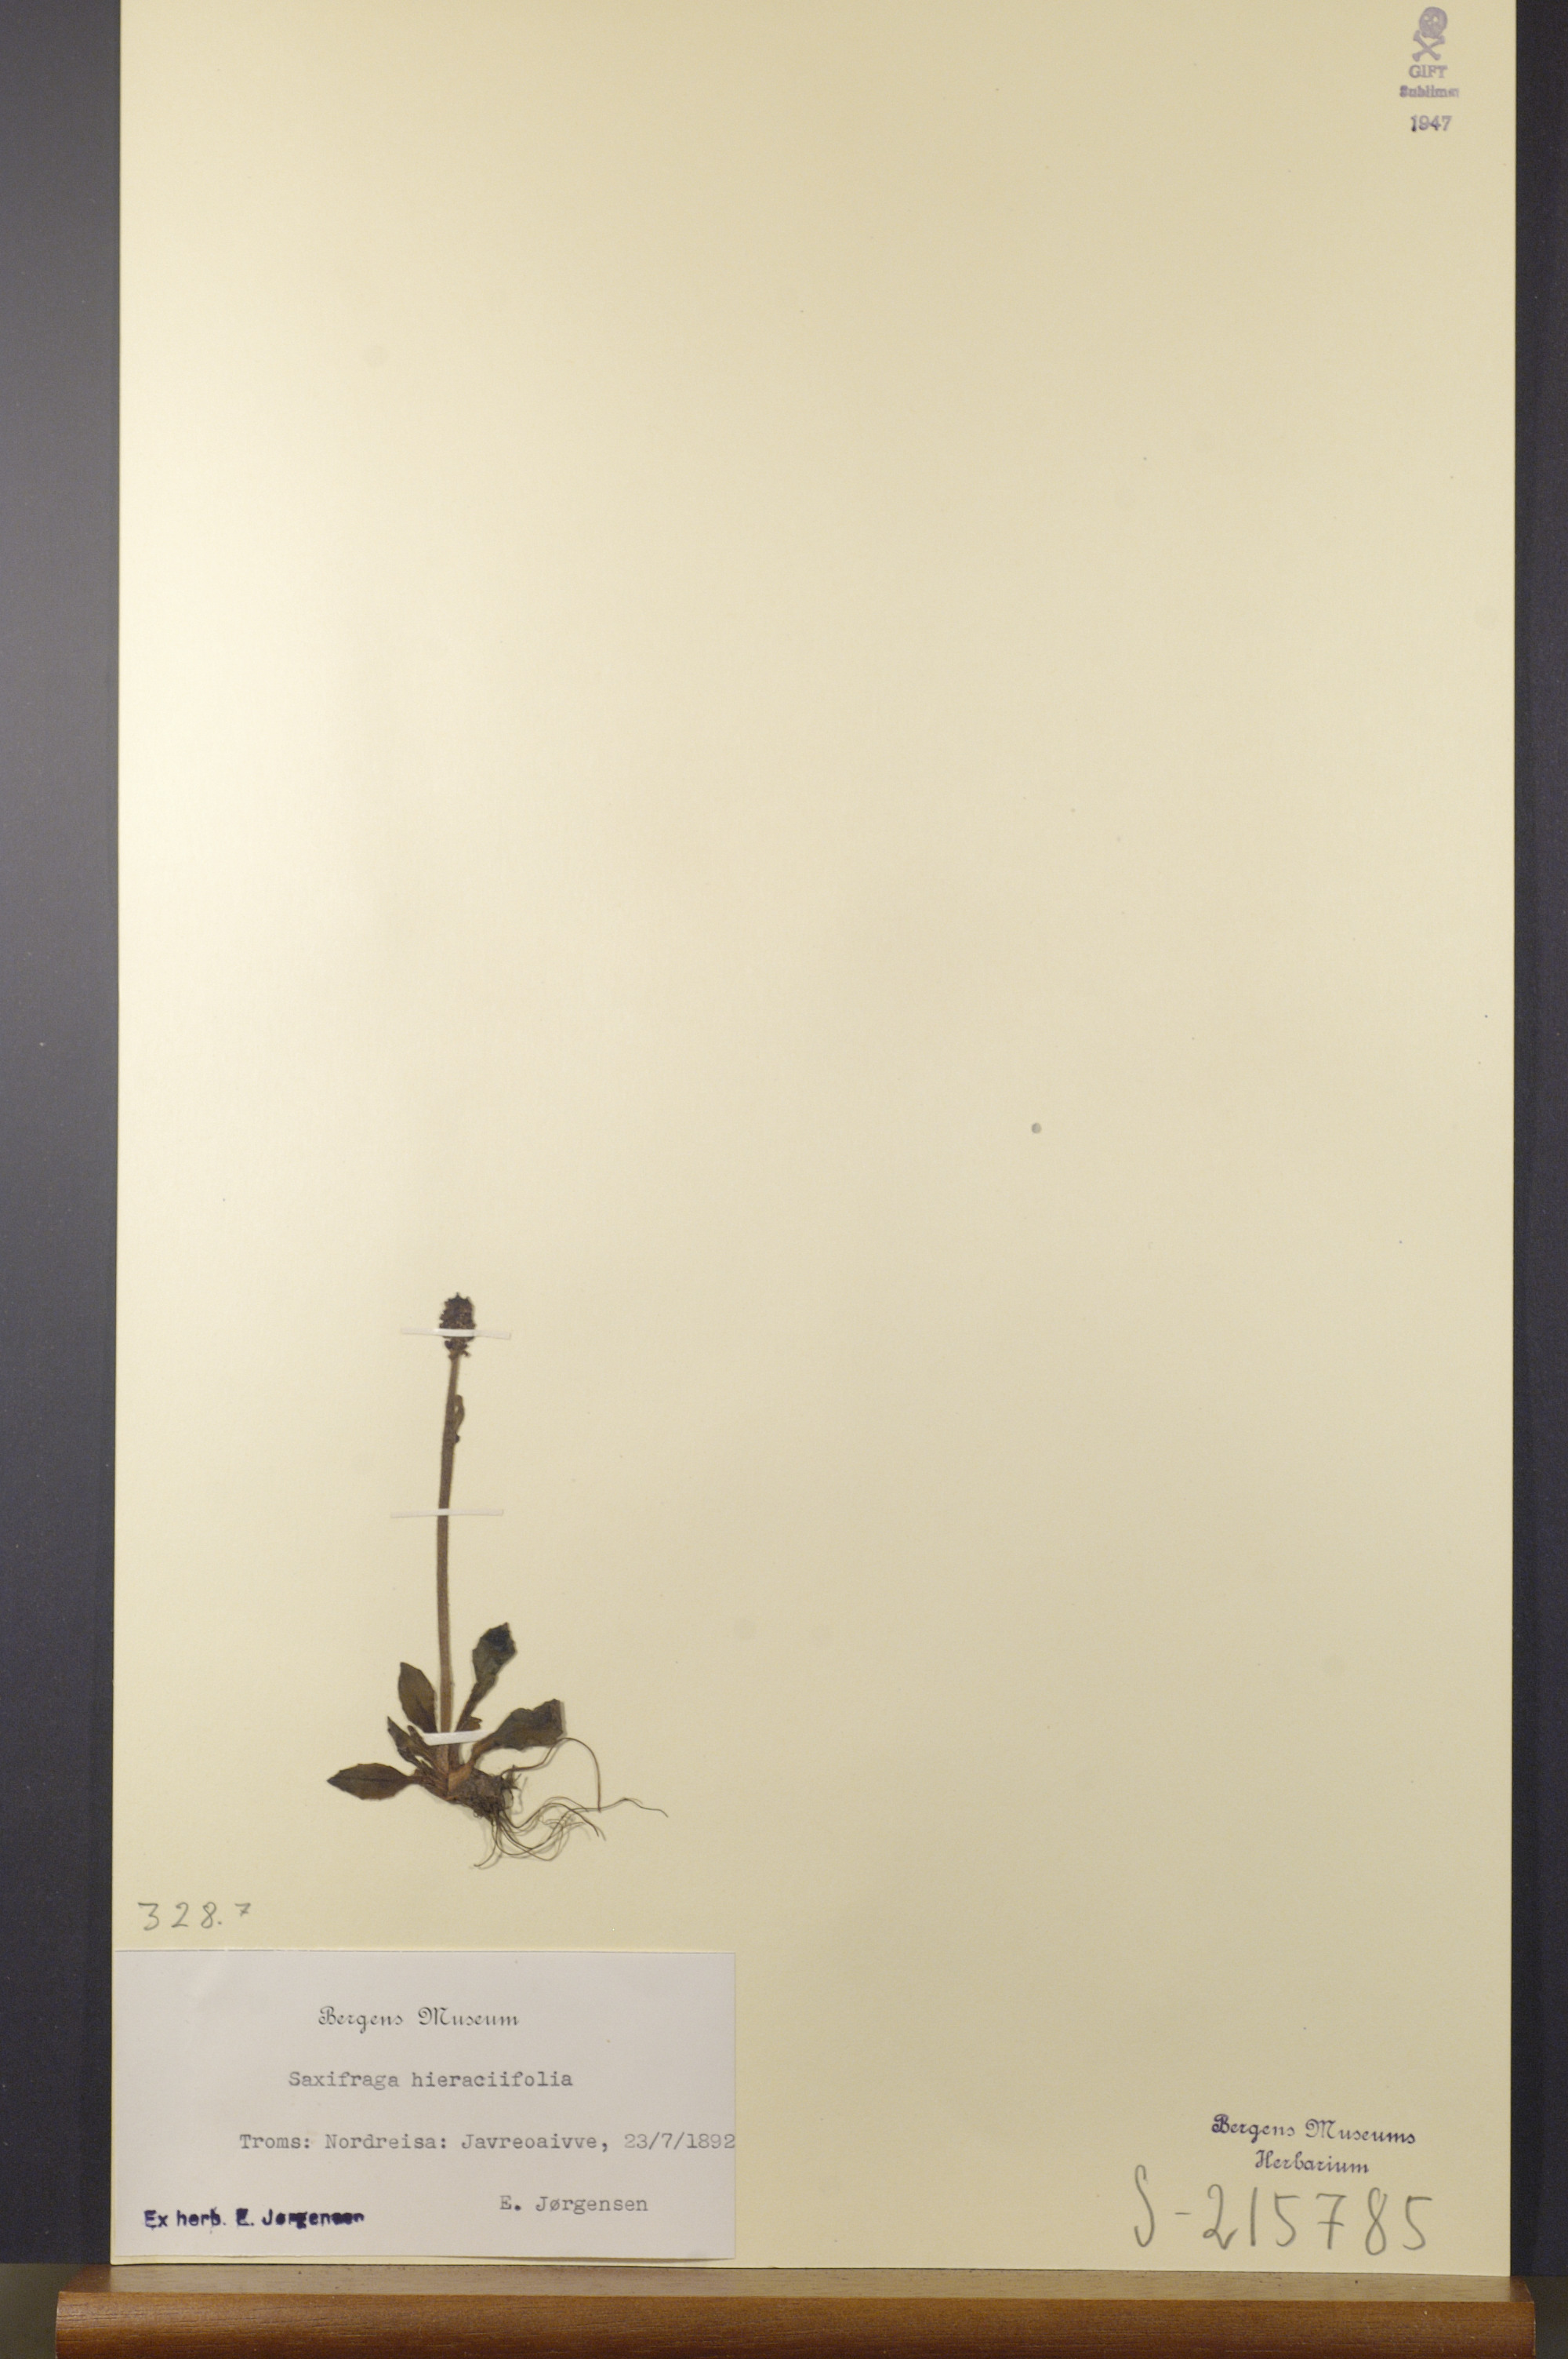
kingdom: Plantae
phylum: Tracheophyta
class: Magnoliopsida
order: Saxifragales
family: Saxifragaceae
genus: Micranthes
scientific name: Micranthes hieraciifolia
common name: Hawkweed-leaved saxifrage
